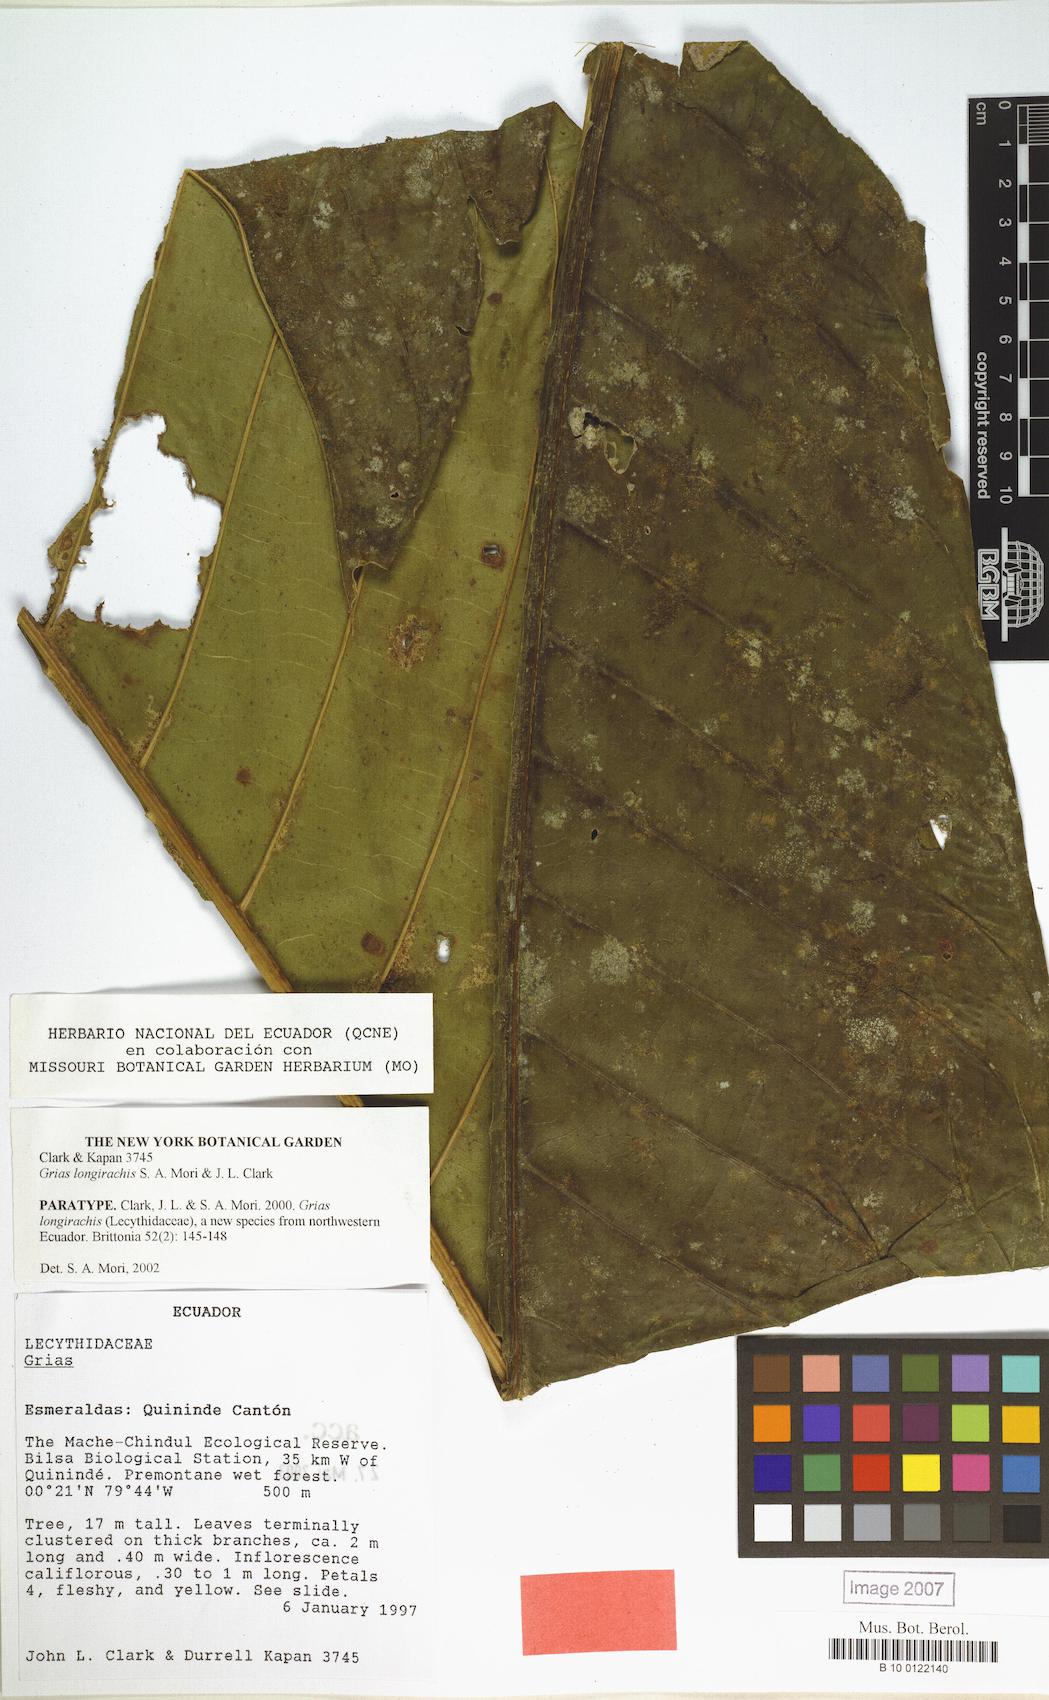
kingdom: Plantae
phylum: Tracheophyta
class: Magnoliopsida
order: Ericales
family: Lecythidaceae
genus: Grias
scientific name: Grias longirachis
